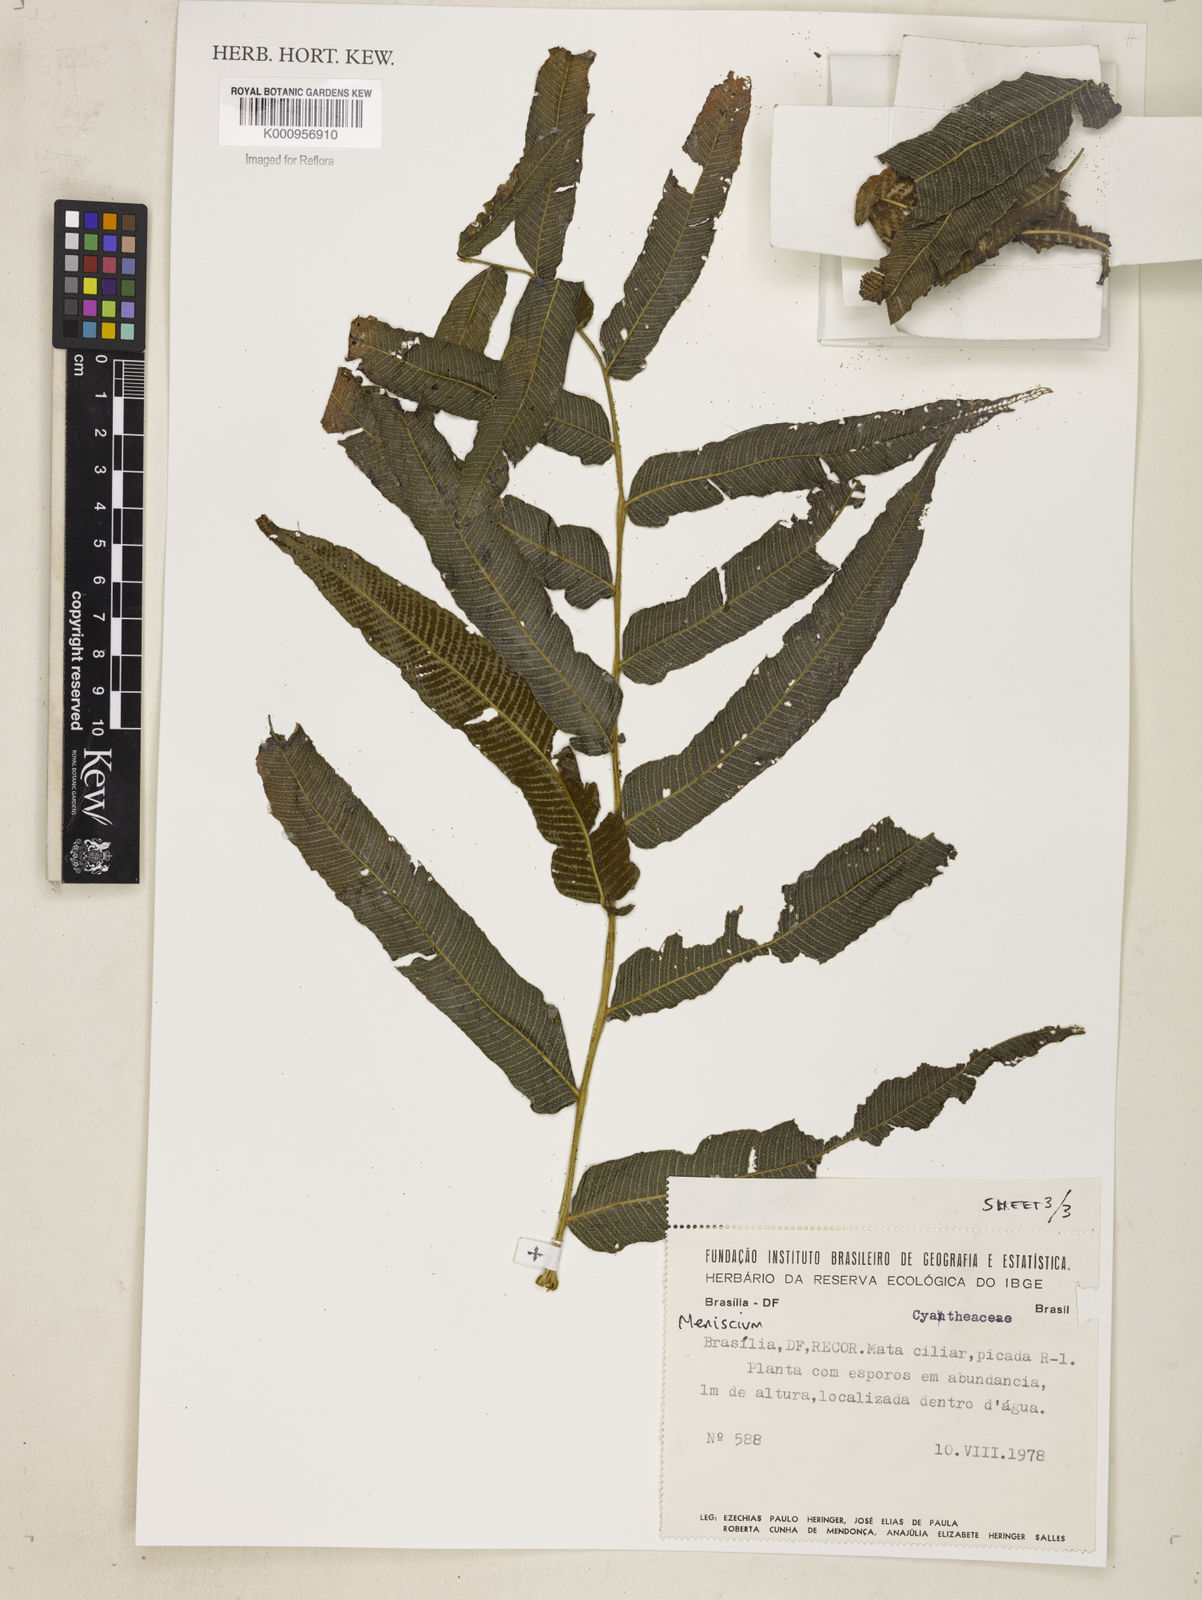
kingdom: Plantae
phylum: Tracheophyta
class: Polypodiopsida
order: Polypodiales
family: Thelypteridaceae
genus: Meniscium
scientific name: Meniscium
